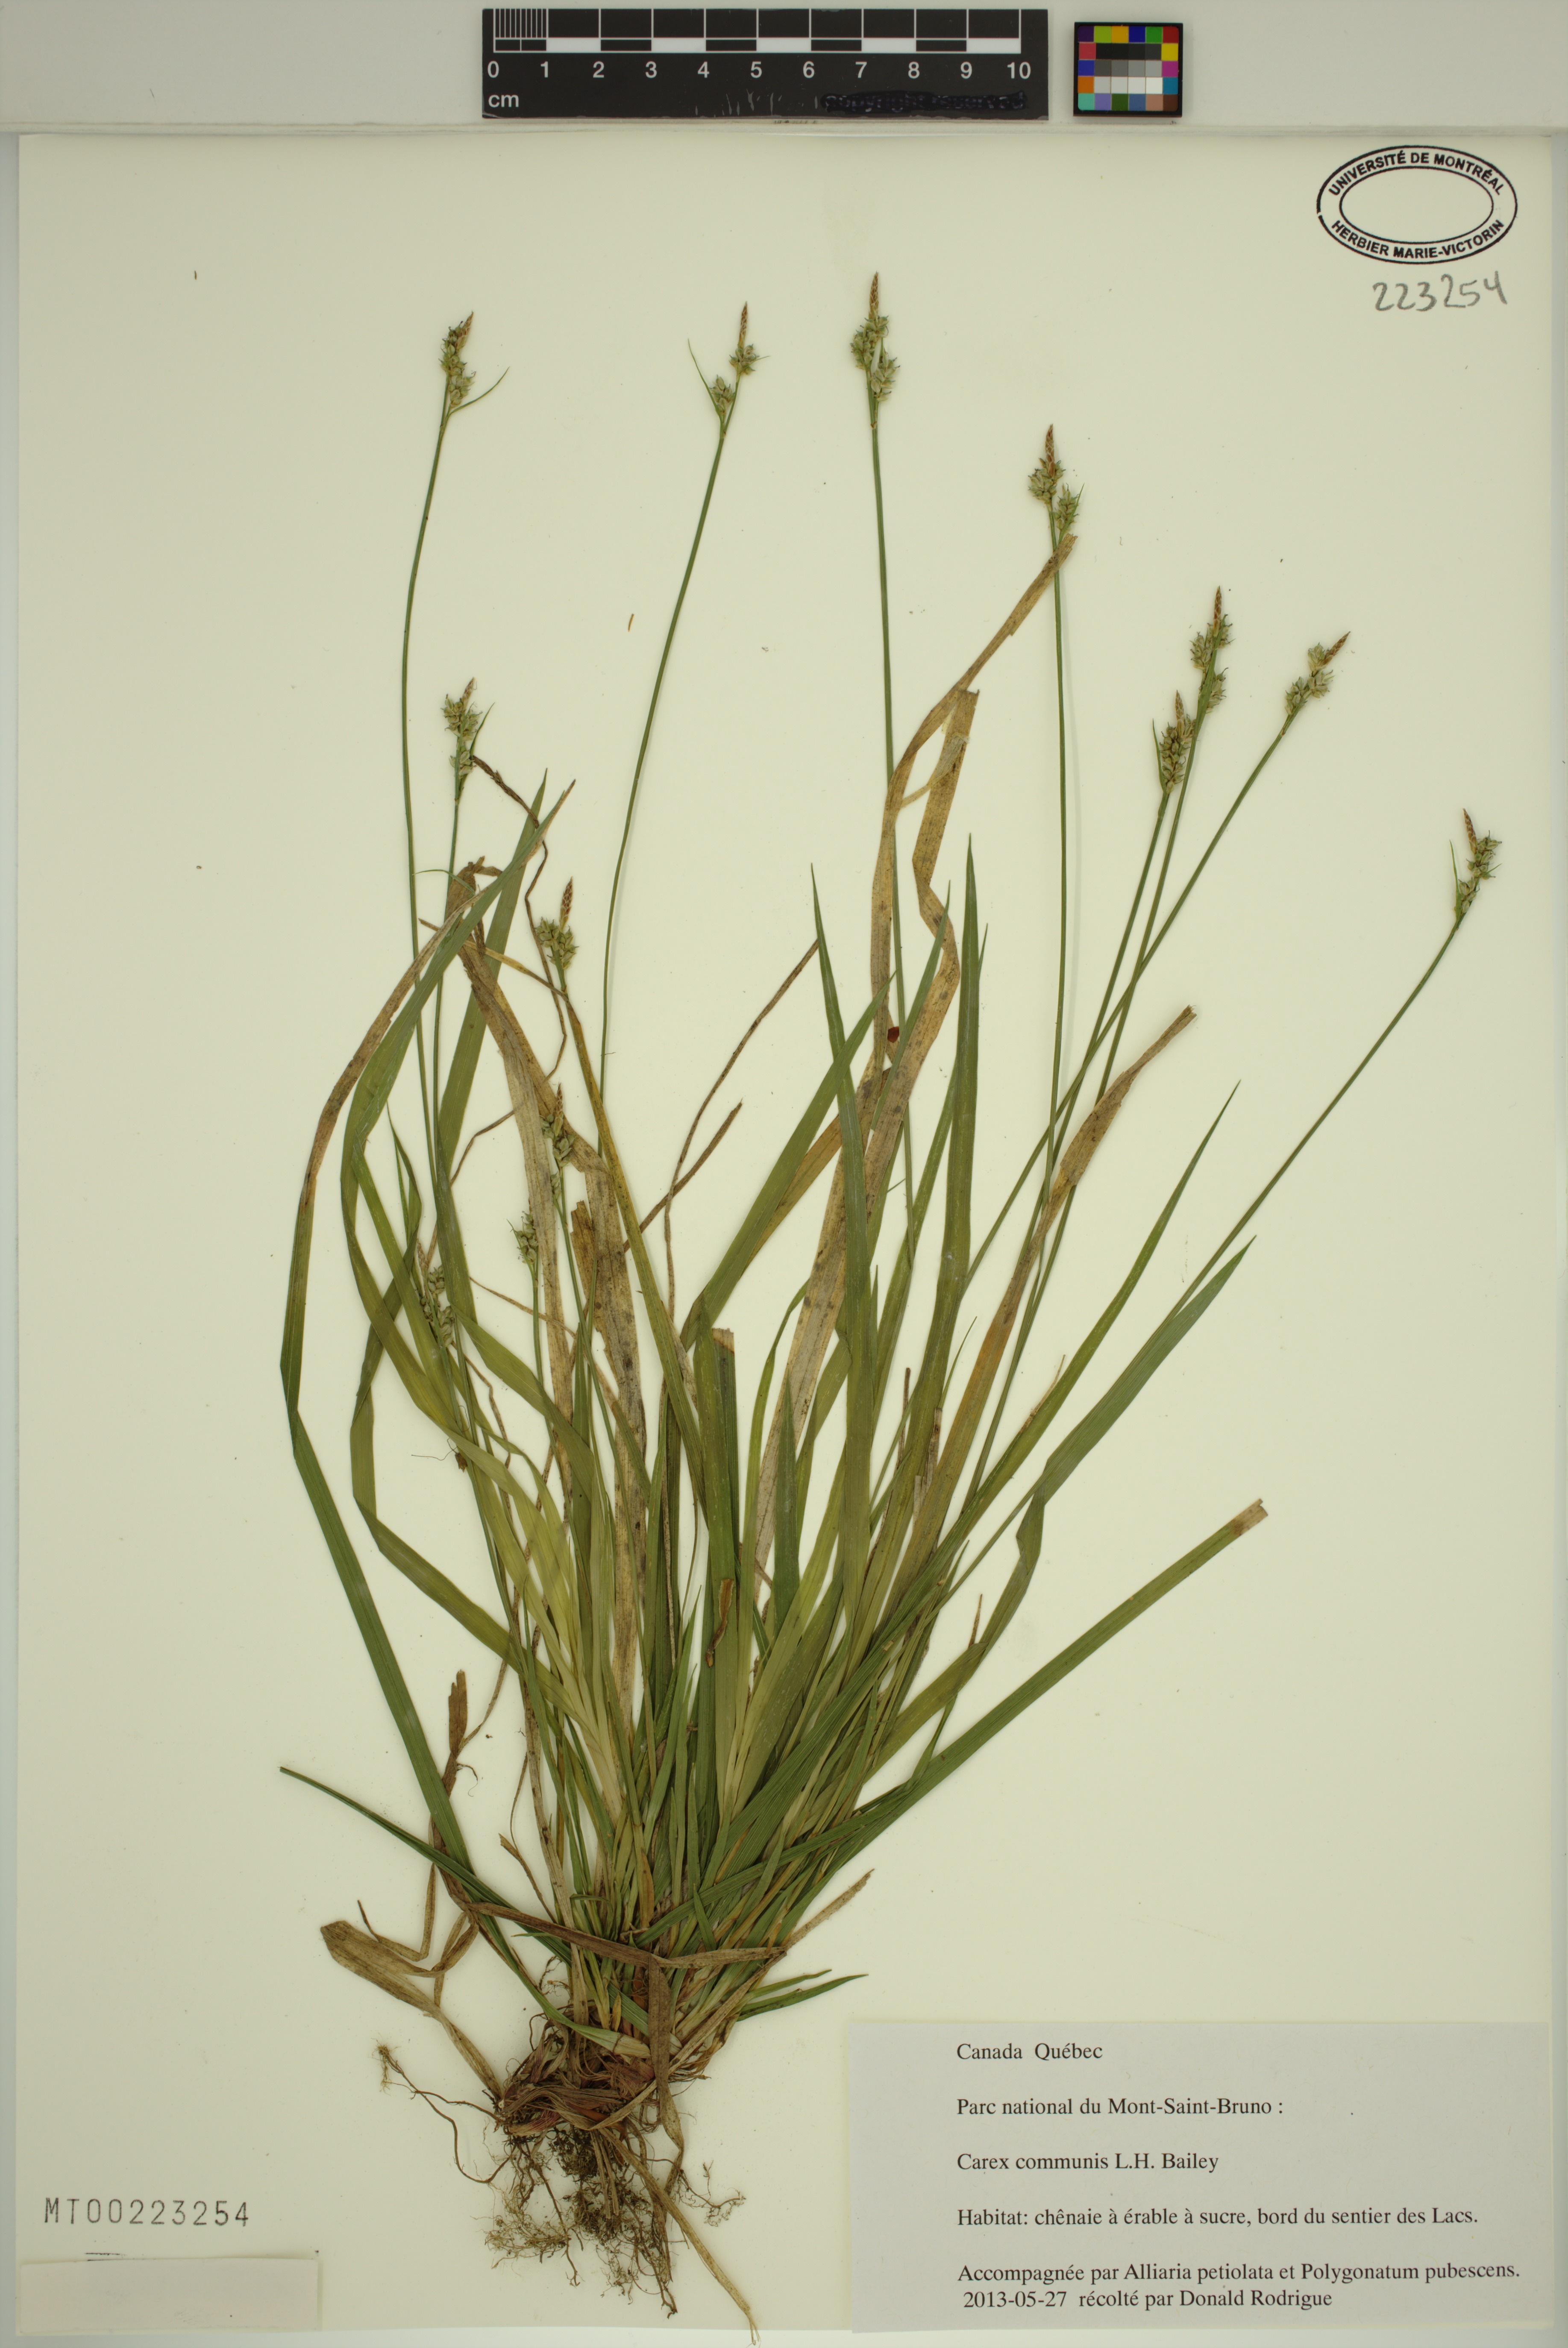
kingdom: Plantae
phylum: Tracheophyta
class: Liliopsida
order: Poales
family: Cyperaceae
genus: Carex
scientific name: Carex communis
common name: Colonial oak sedge
